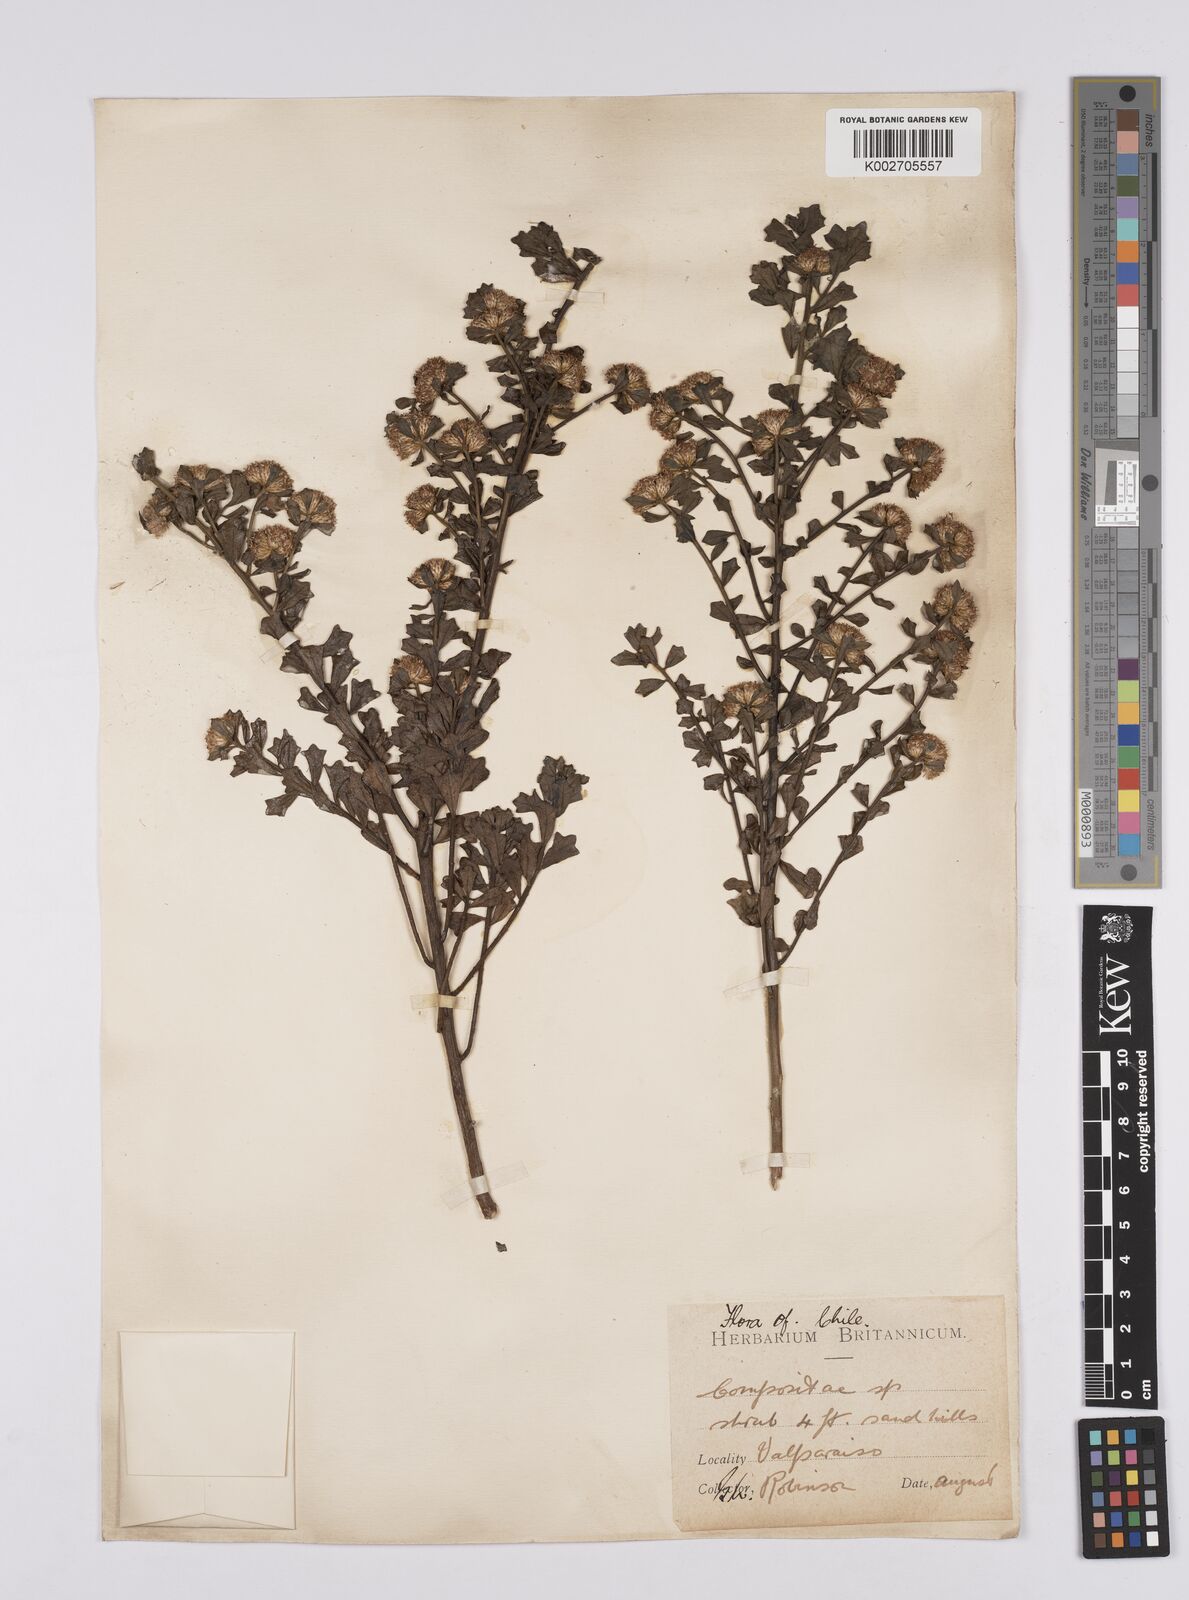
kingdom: Plantae
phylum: Tracheophyta
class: Magnoliopsida
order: Asterales
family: Asteraceae
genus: Baccharis
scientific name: Baccharis concava
